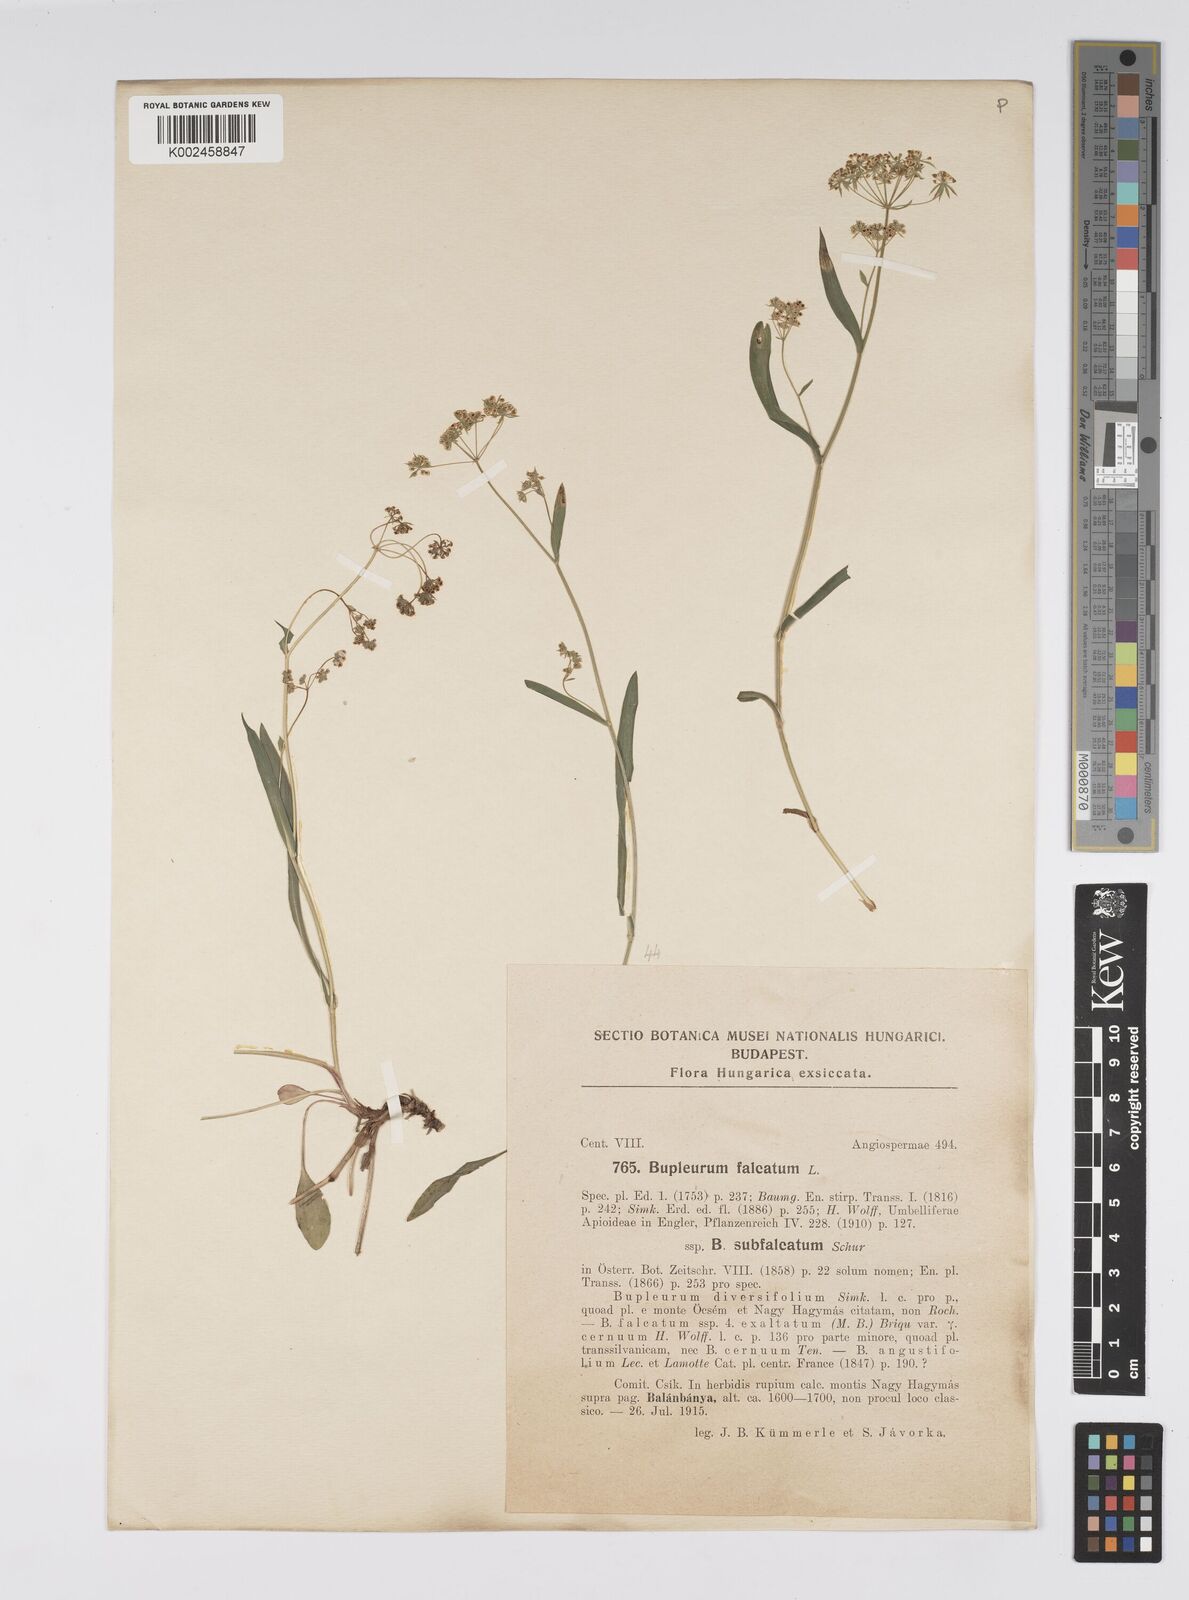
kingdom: Plantae
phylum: Tracheophyta
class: Magnoliopsida
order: Apiales
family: Apiaceae
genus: Bupleurum
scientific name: Bupleurum falcatum
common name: Sickle-leaved hare's-ear
